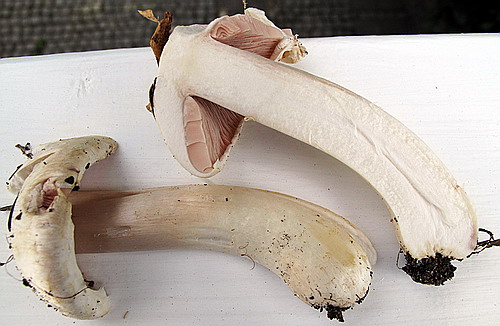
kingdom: Fungi
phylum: Basidiomycota
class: Agaricomycetes
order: Agaricales
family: Agaricaceae
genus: Agaricus
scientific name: Agaricus altipes
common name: sommer-champignon
